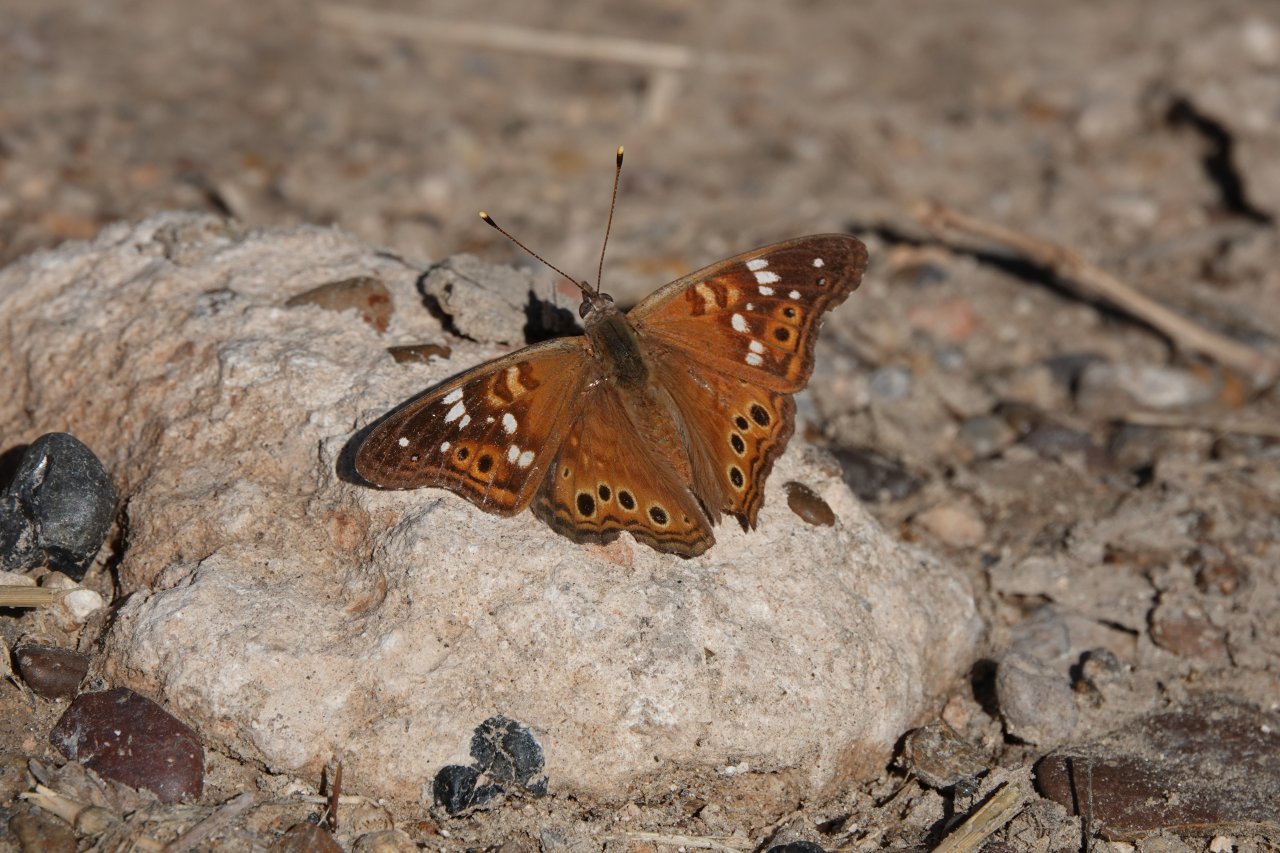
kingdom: Animalia
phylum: Arthropoda
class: Insecta
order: Lepidoptera
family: Nymphalidae
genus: Asterocampa
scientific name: Asterocampa leilia
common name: Empress Leilia
